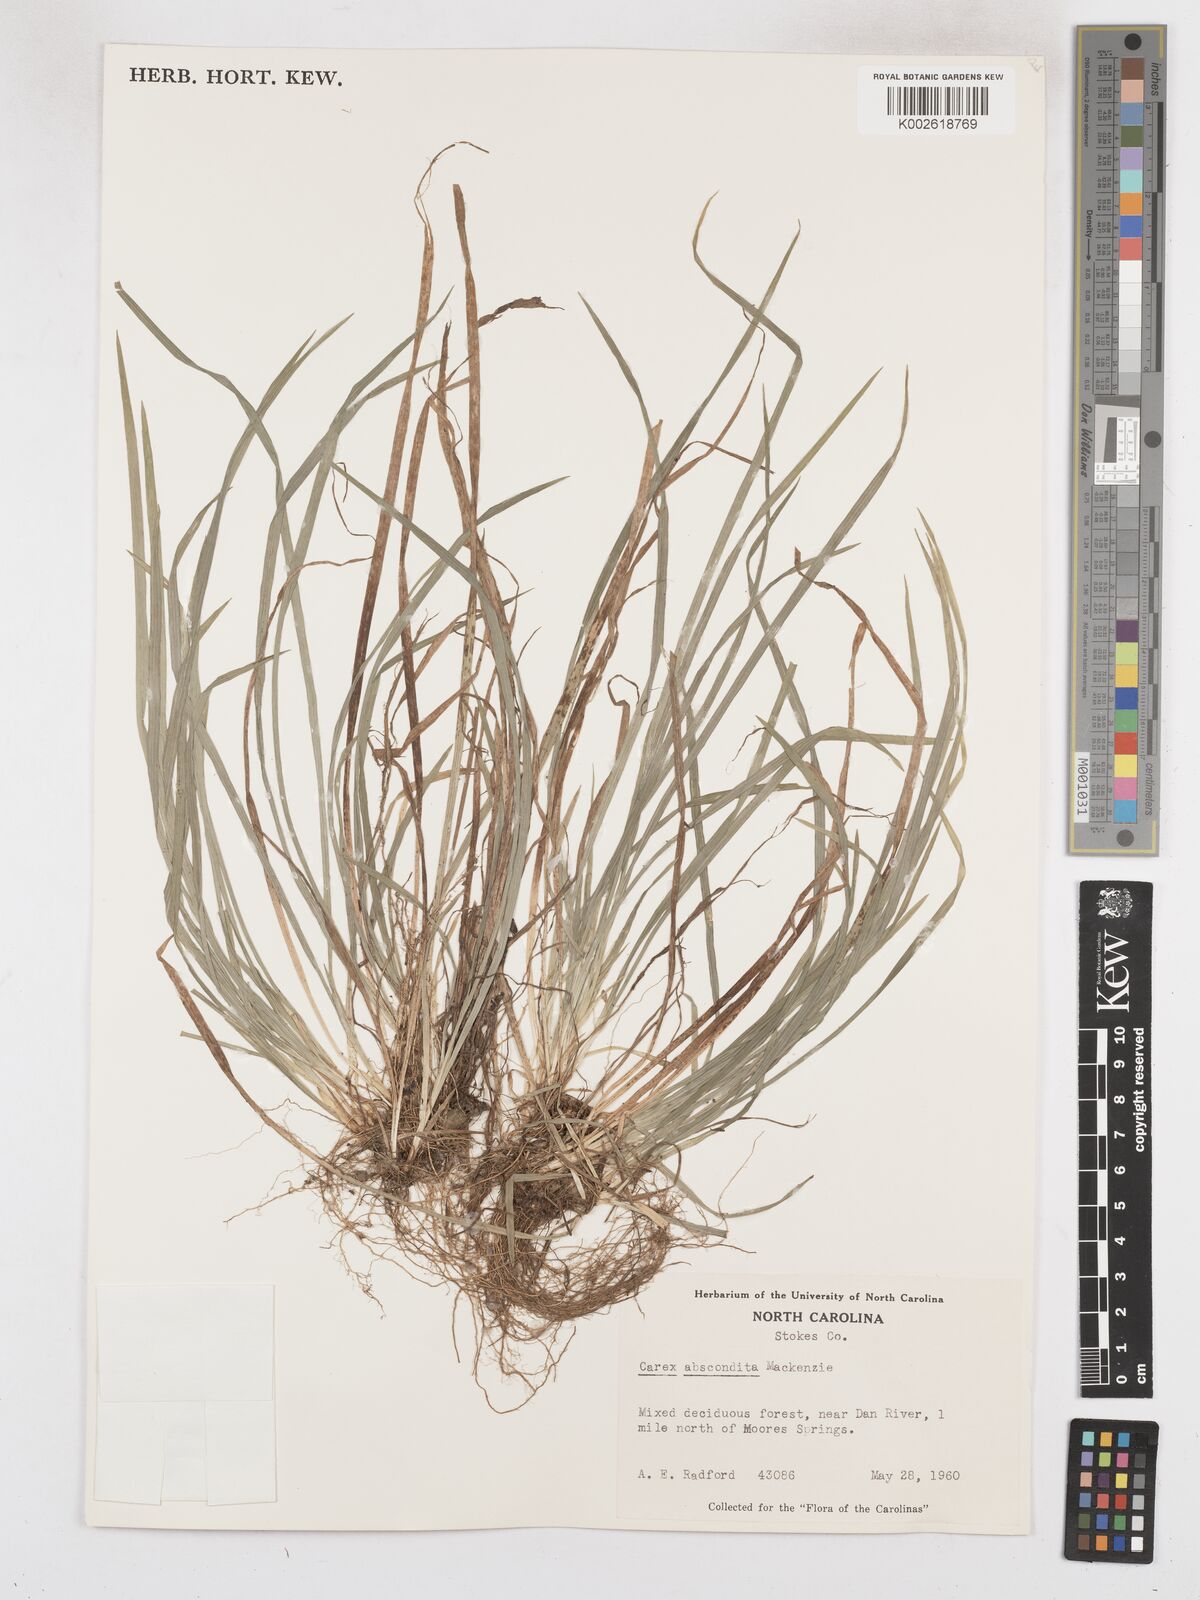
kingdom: Plantae
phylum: Tracheophyta
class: Liliopsida
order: Poales
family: Cyperaceae
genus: Carex
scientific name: Carex abscondita
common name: Thicket sedge
